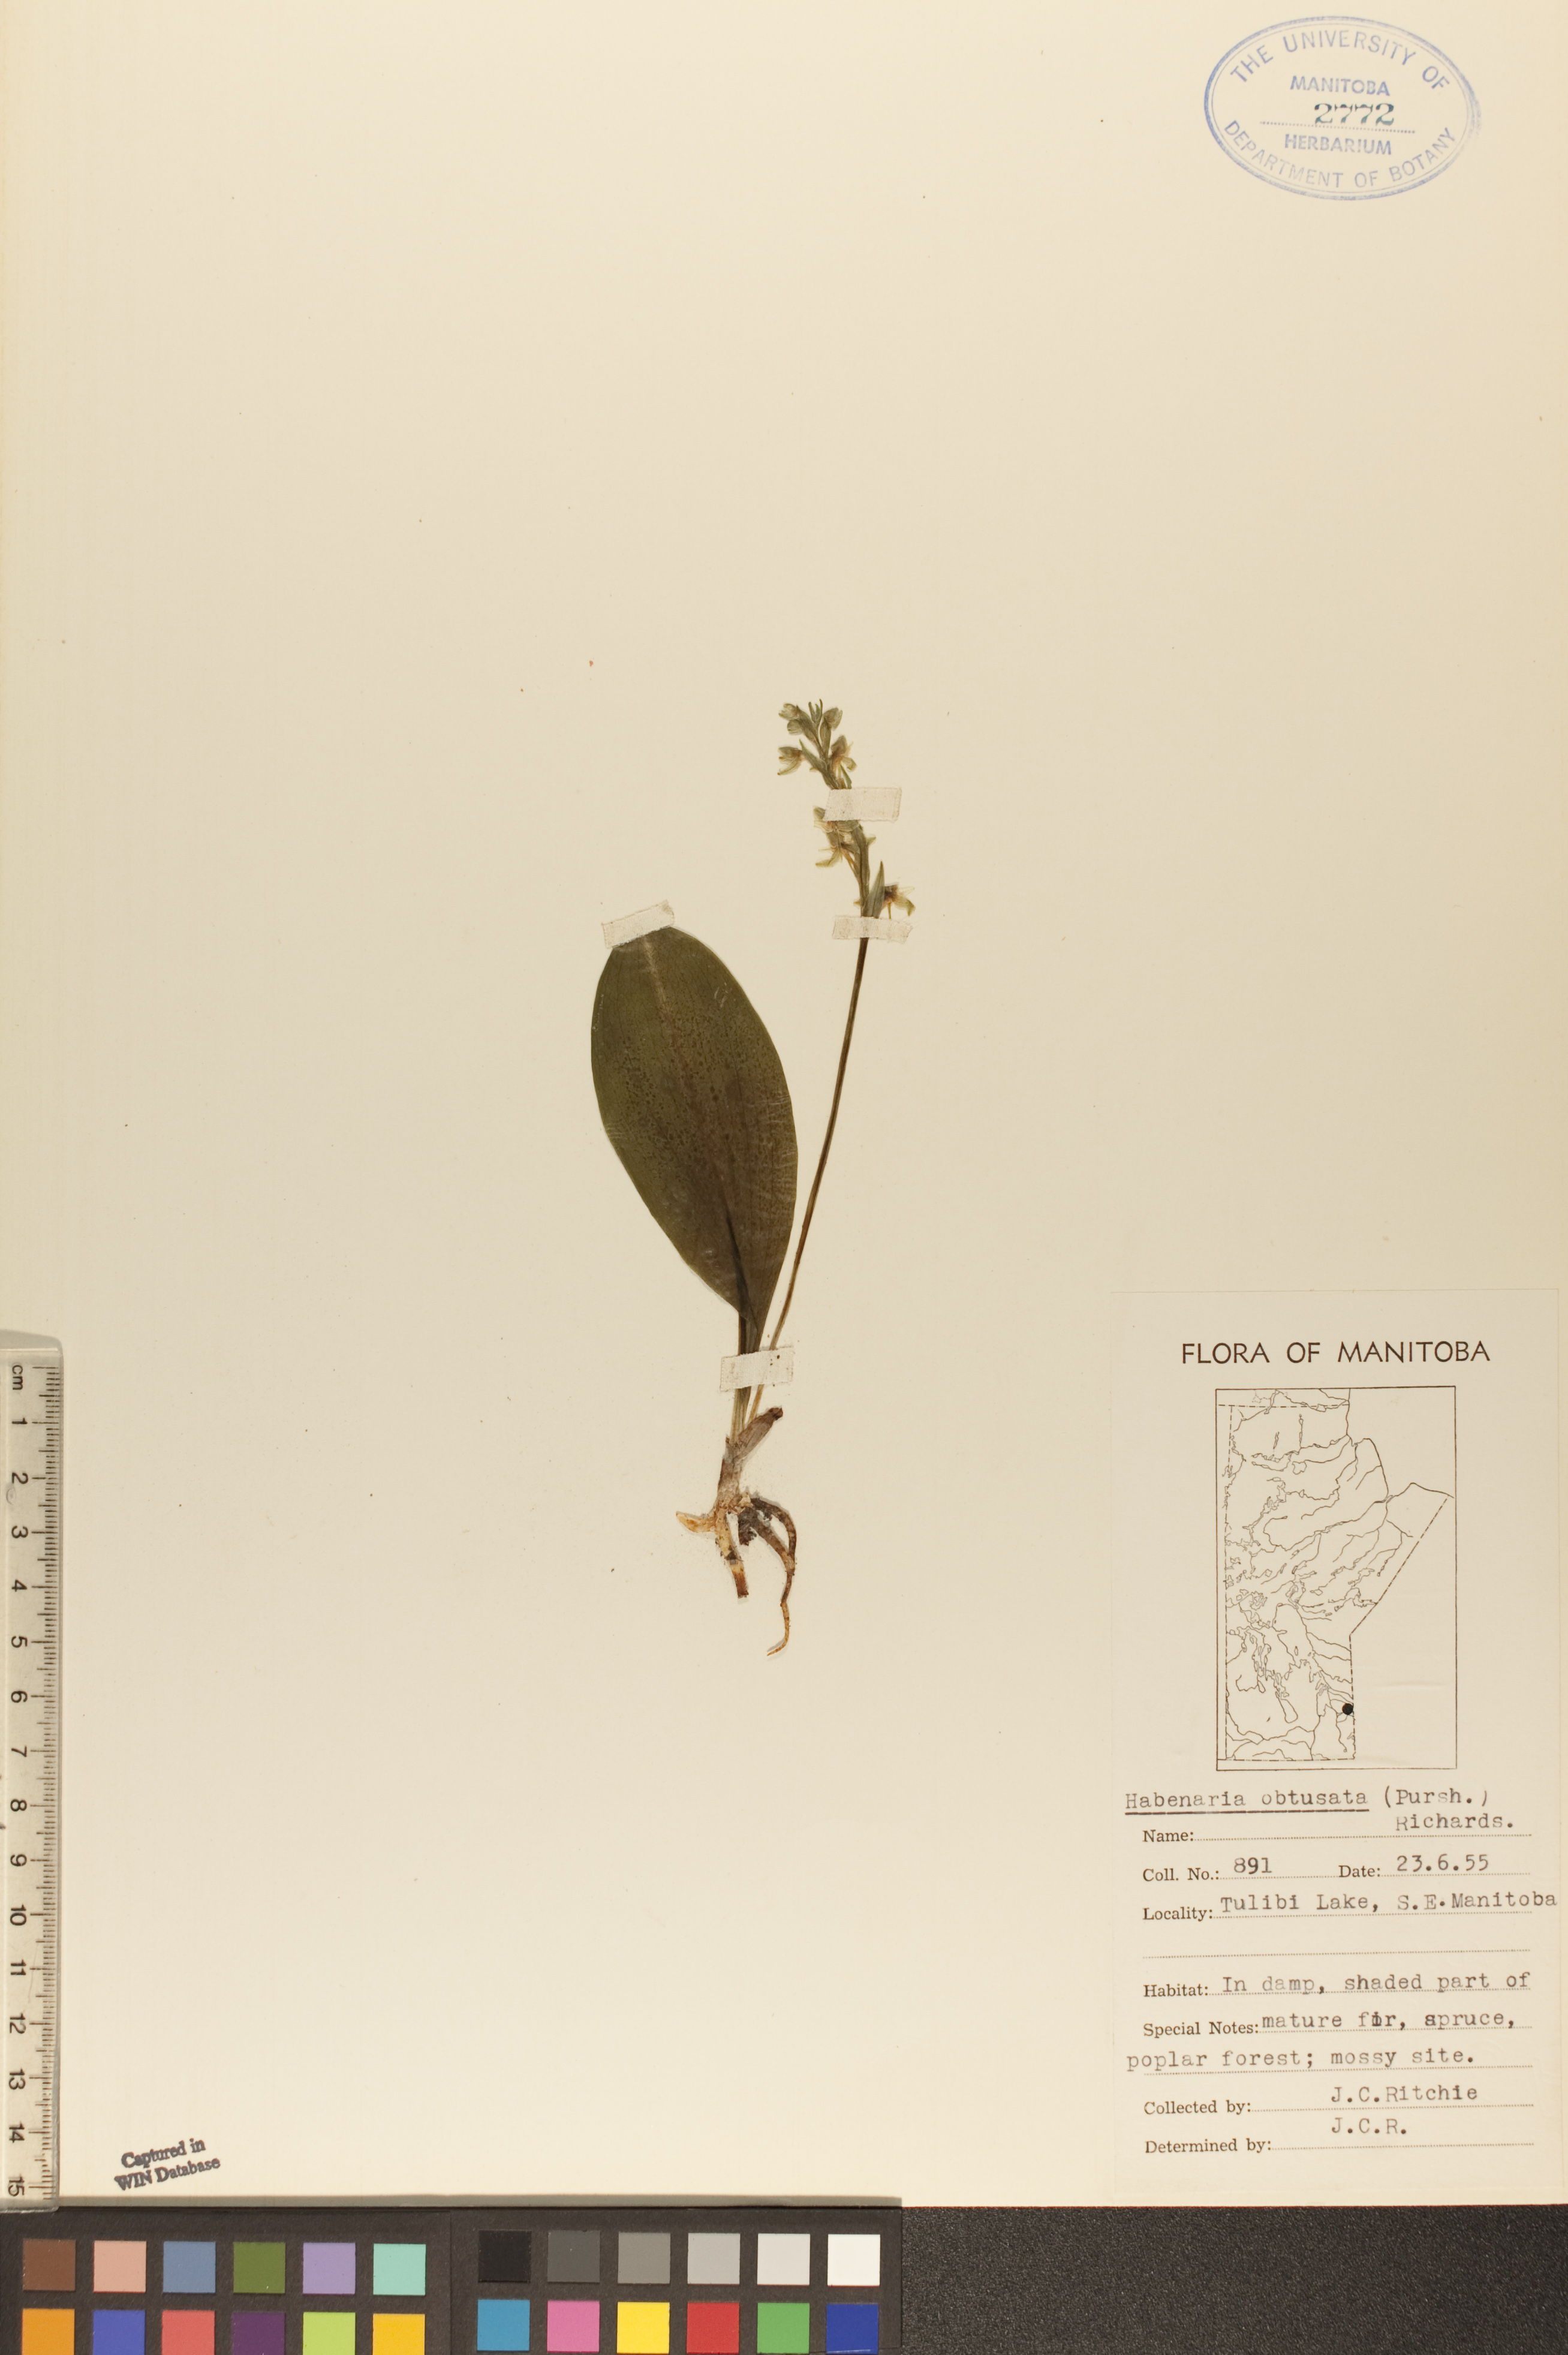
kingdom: Plantae
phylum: Tracheophyta
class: Liliopsida
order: Asparagales
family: Orchidaceae
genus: Platanthera
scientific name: Platanthera obtusata
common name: Blunt bog orchid
